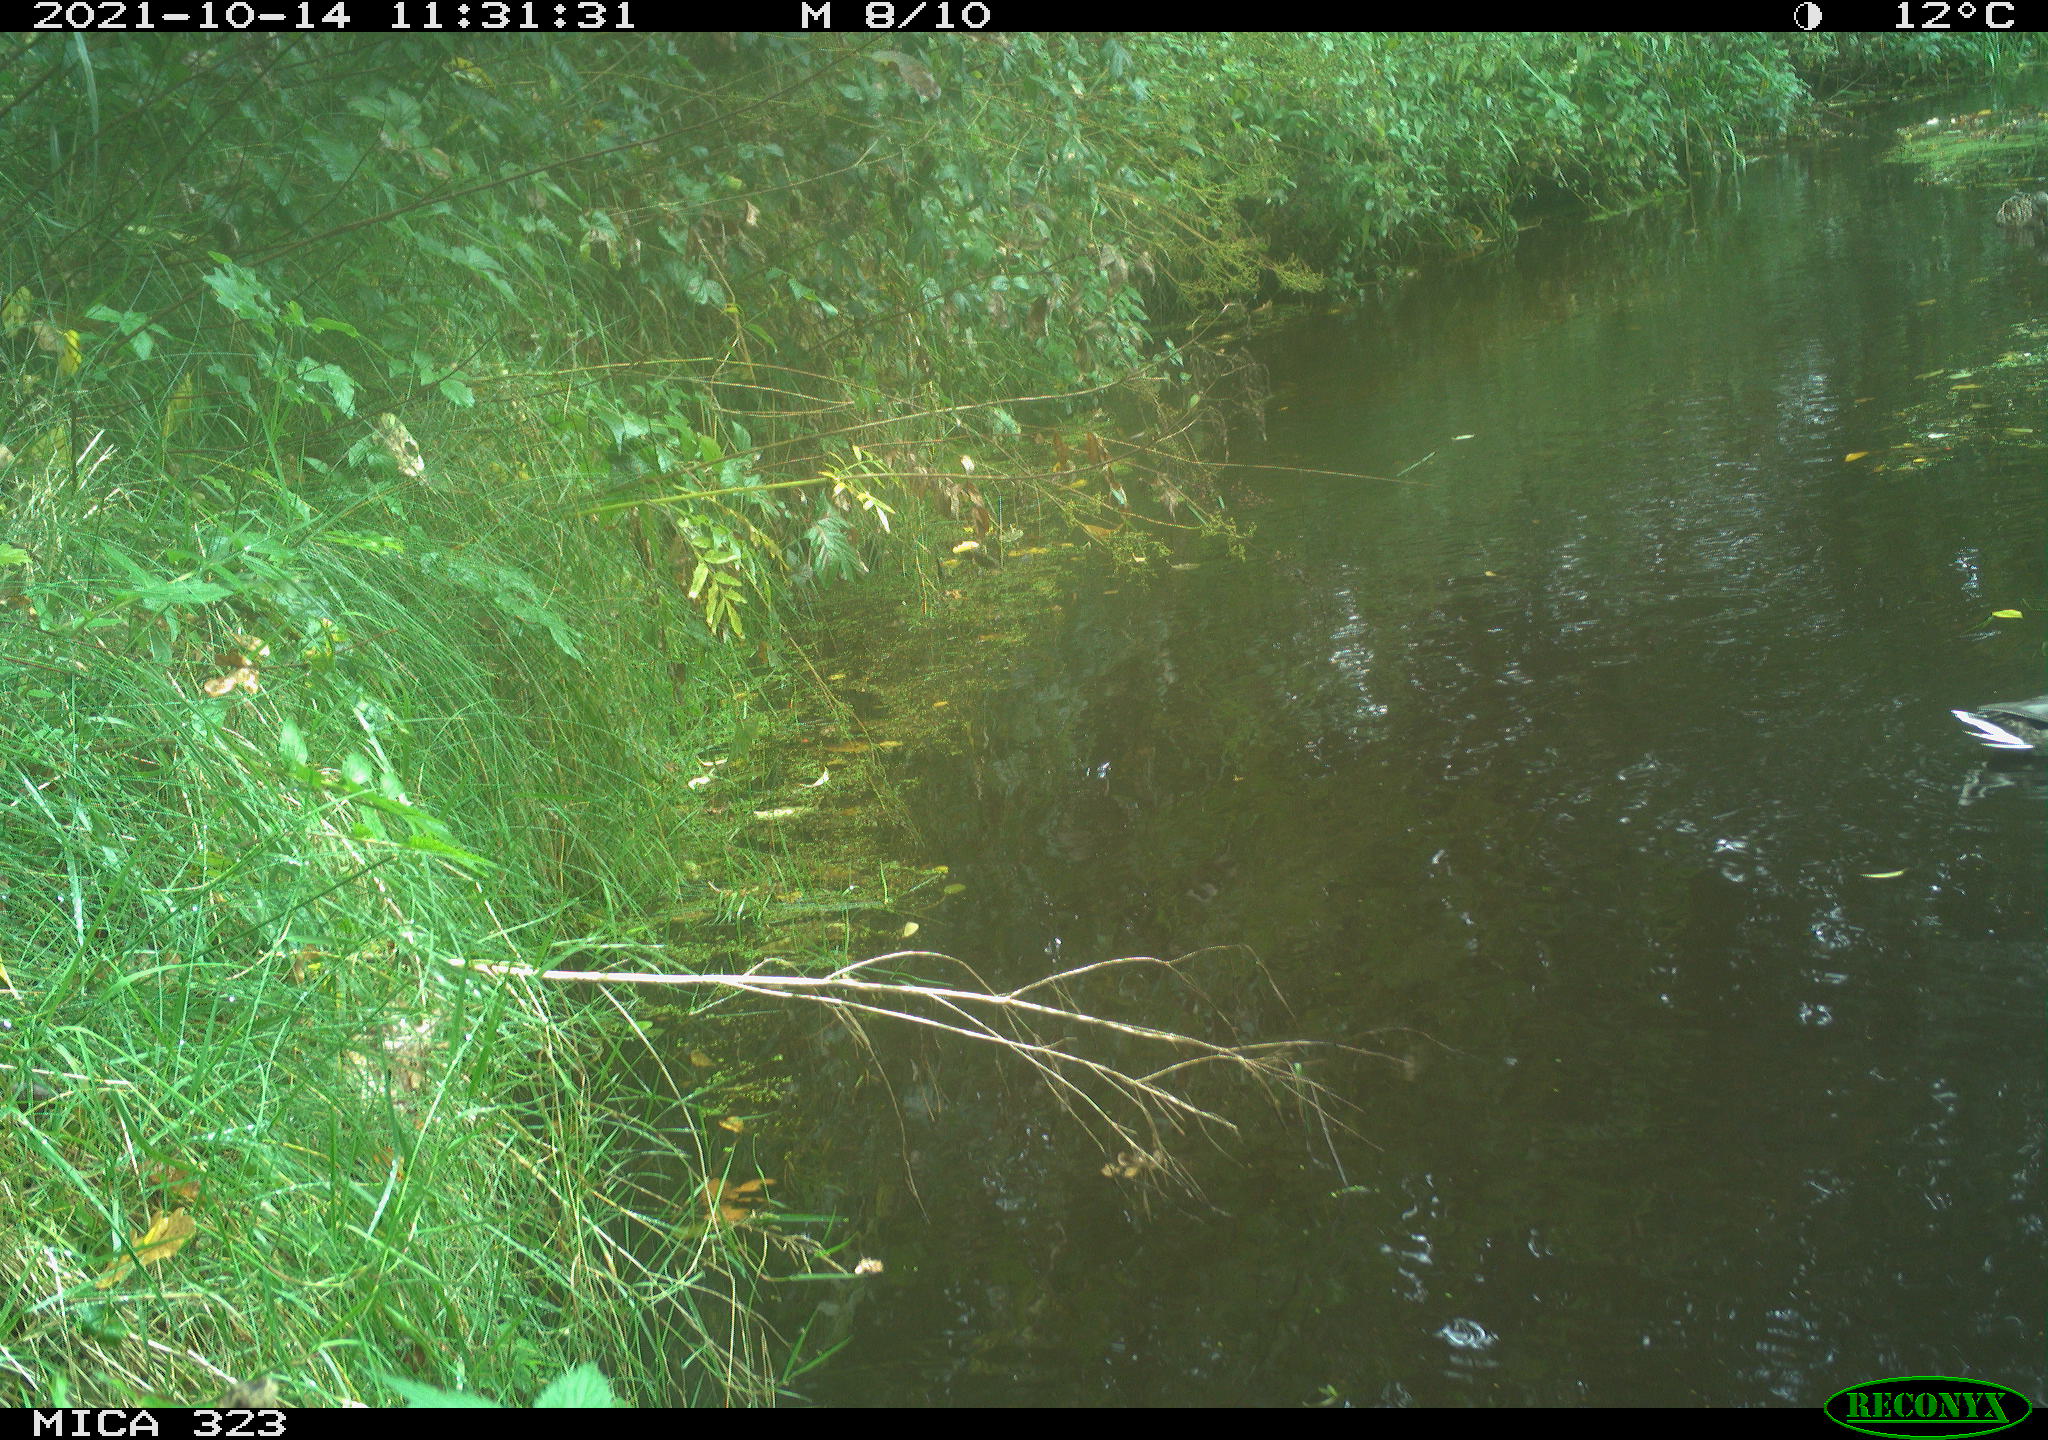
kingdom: Animalia
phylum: Chordata
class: Aves
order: Anseriformes
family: Anatidae
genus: Anas
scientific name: Anas platyrhynchos
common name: Mallard
